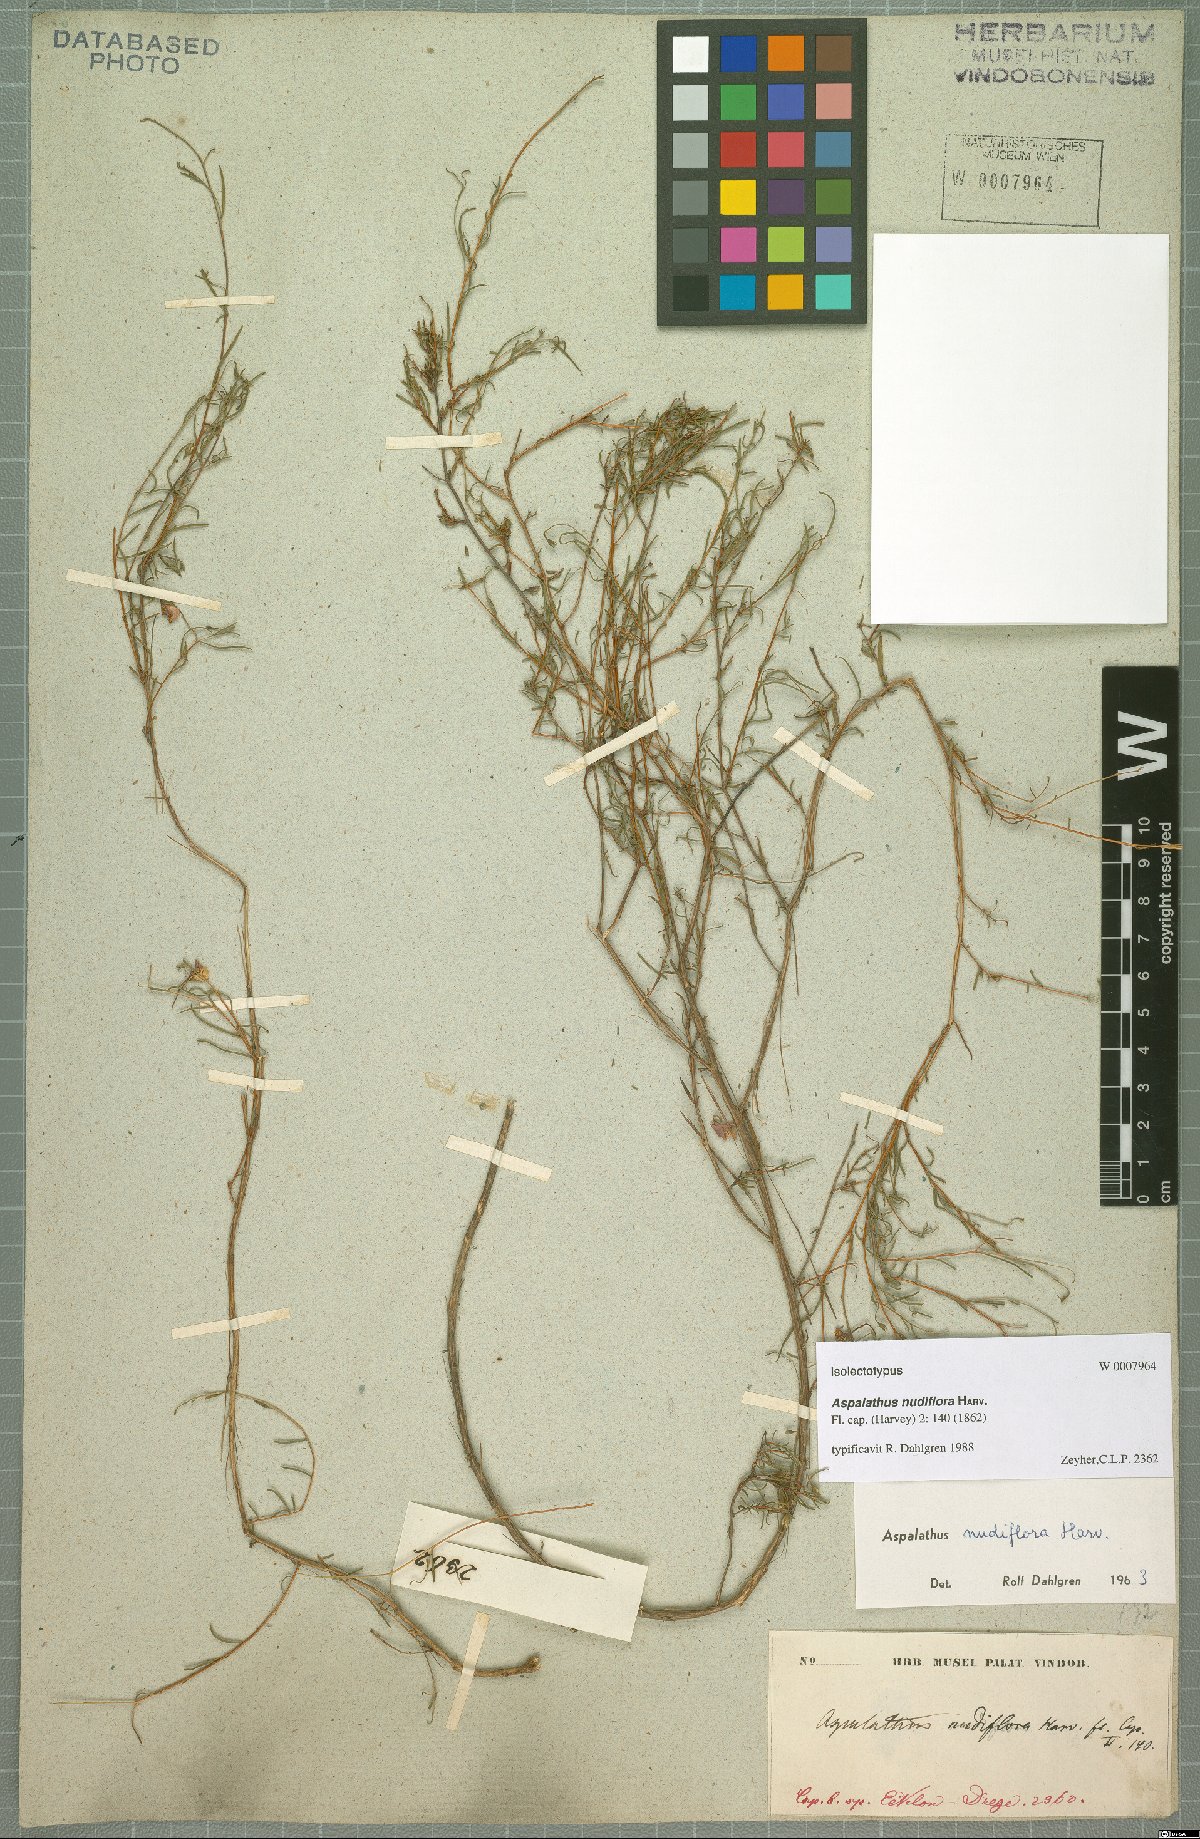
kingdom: Plantae
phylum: Tracheophyta
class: Magnoliopsida
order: Fabales
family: Fabaceae
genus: Aspalathus
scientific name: Aspalathus nudiflora
